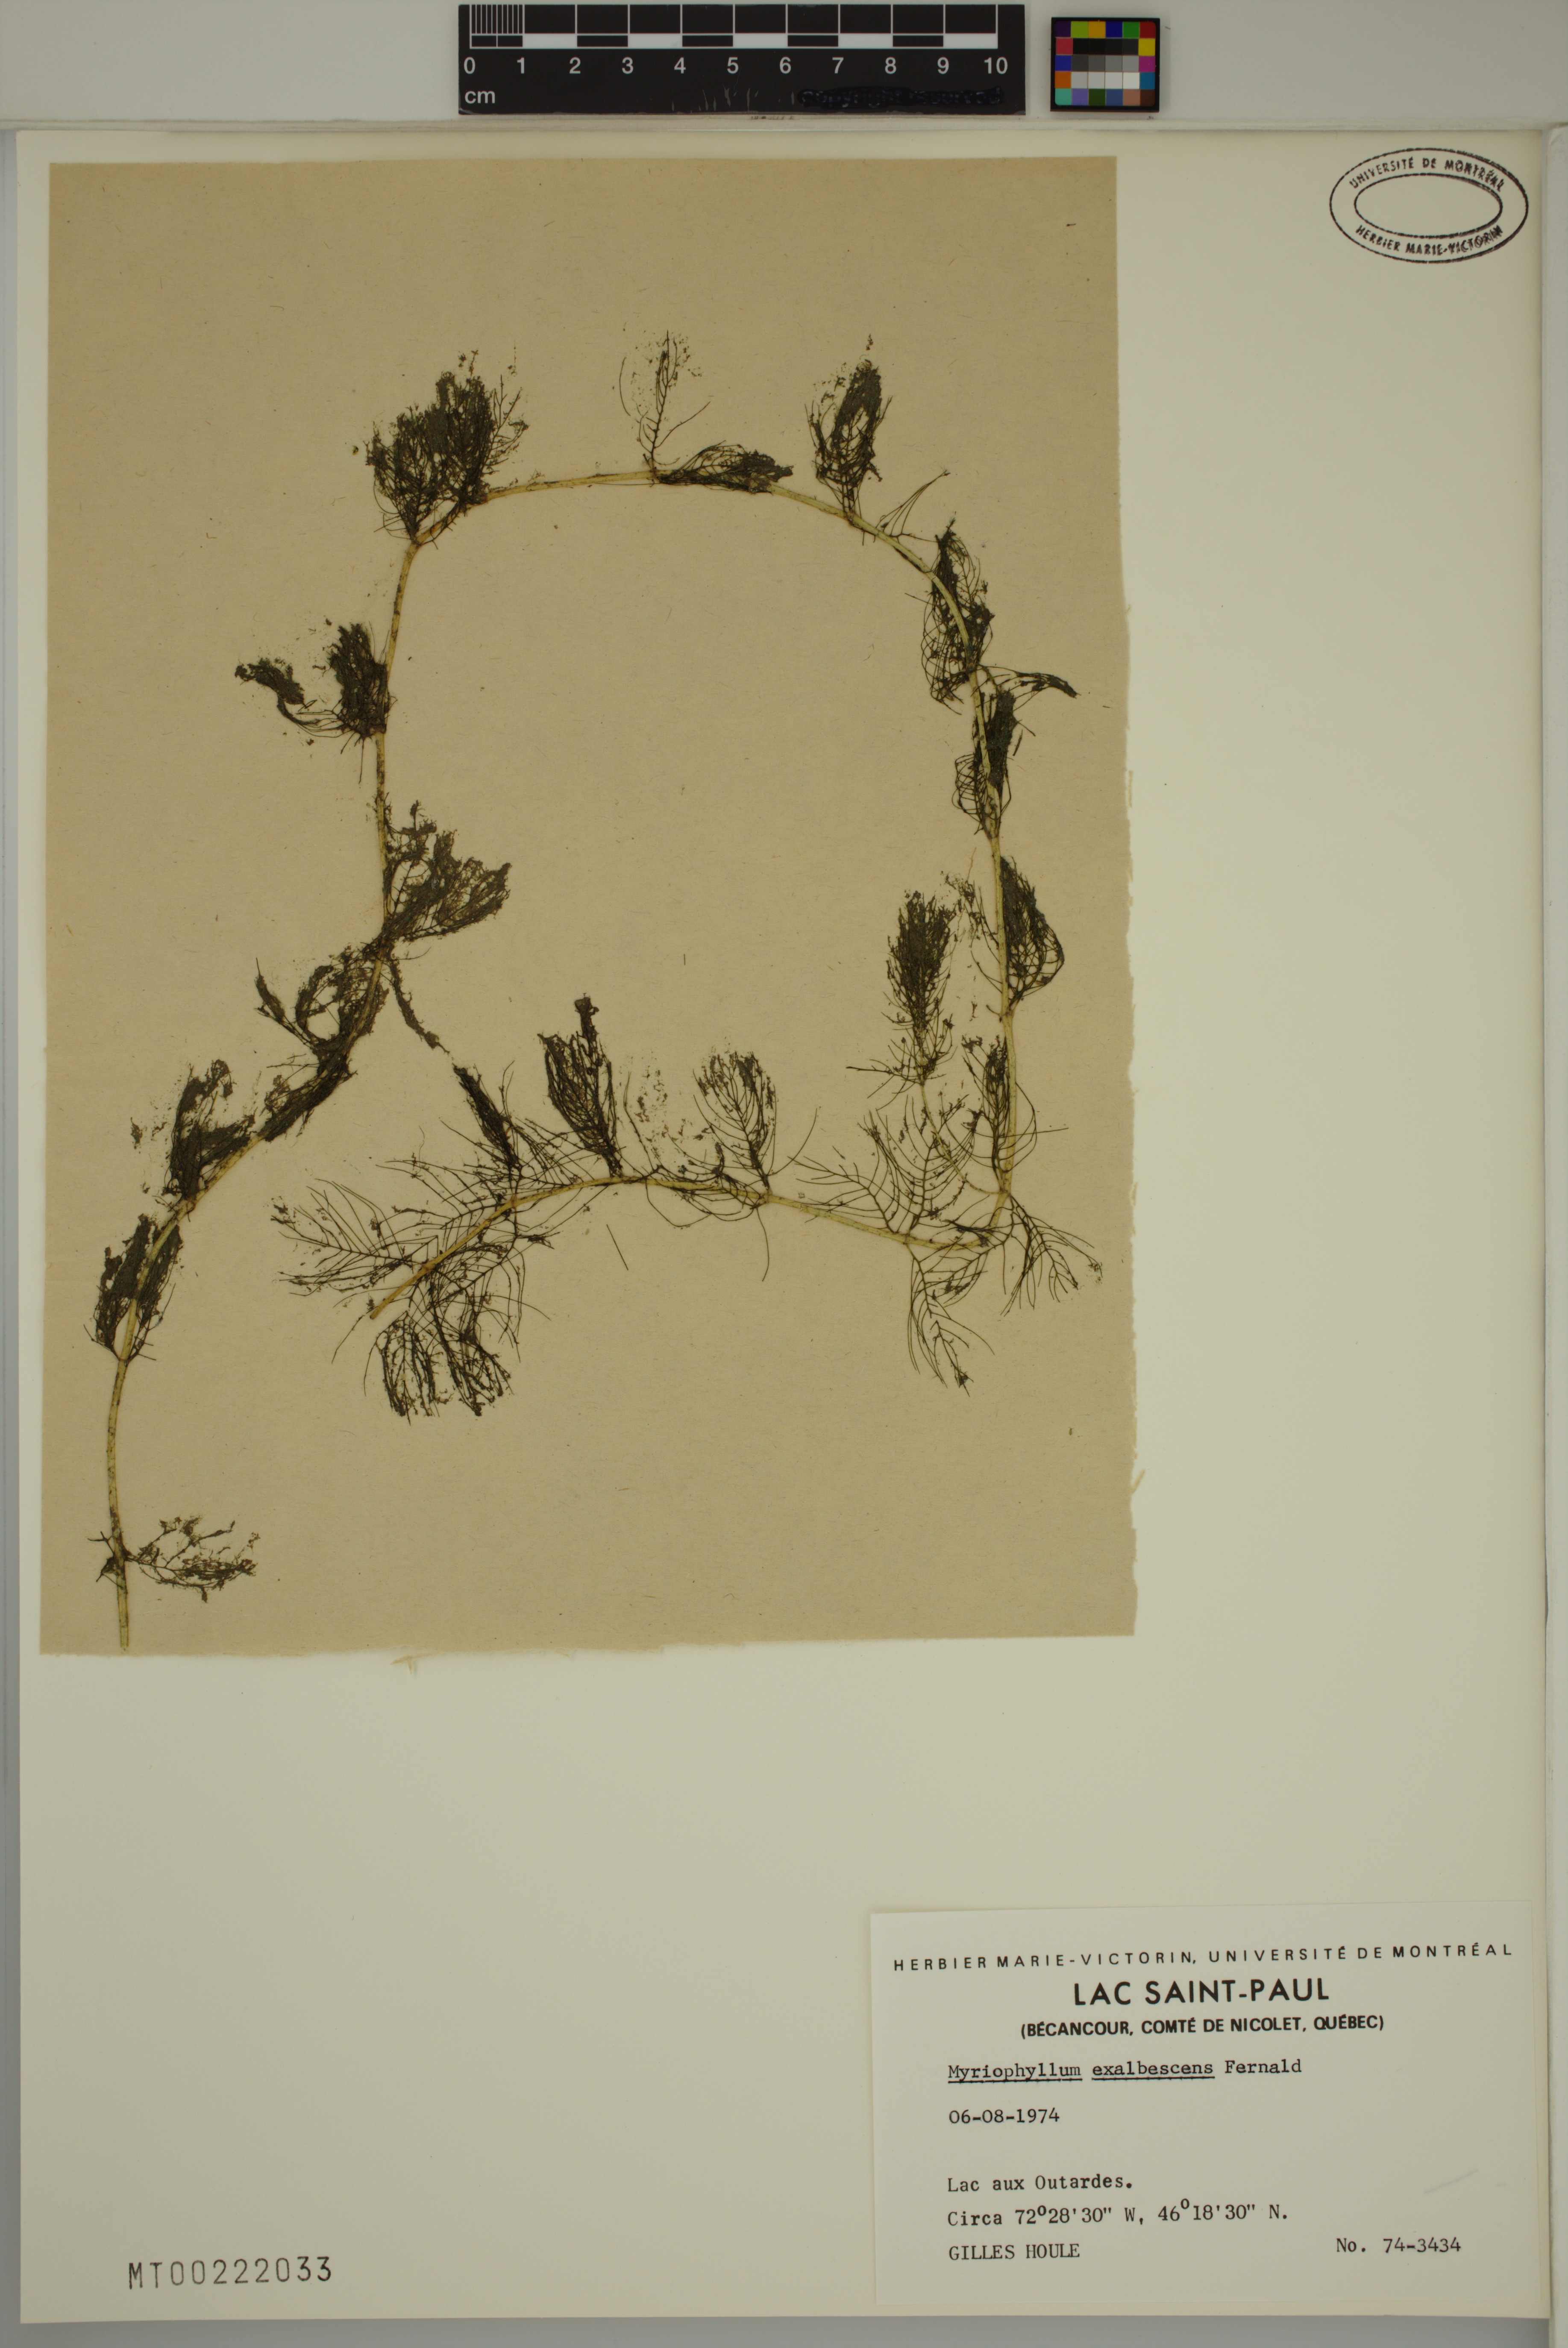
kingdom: Plantae
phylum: Tracheophyta
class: Magnoliopsida
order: Saxifragales
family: Haloragaceae
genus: Myriophyllum
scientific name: Myriophyllum sibiricum
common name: Siberian water-milfoil
